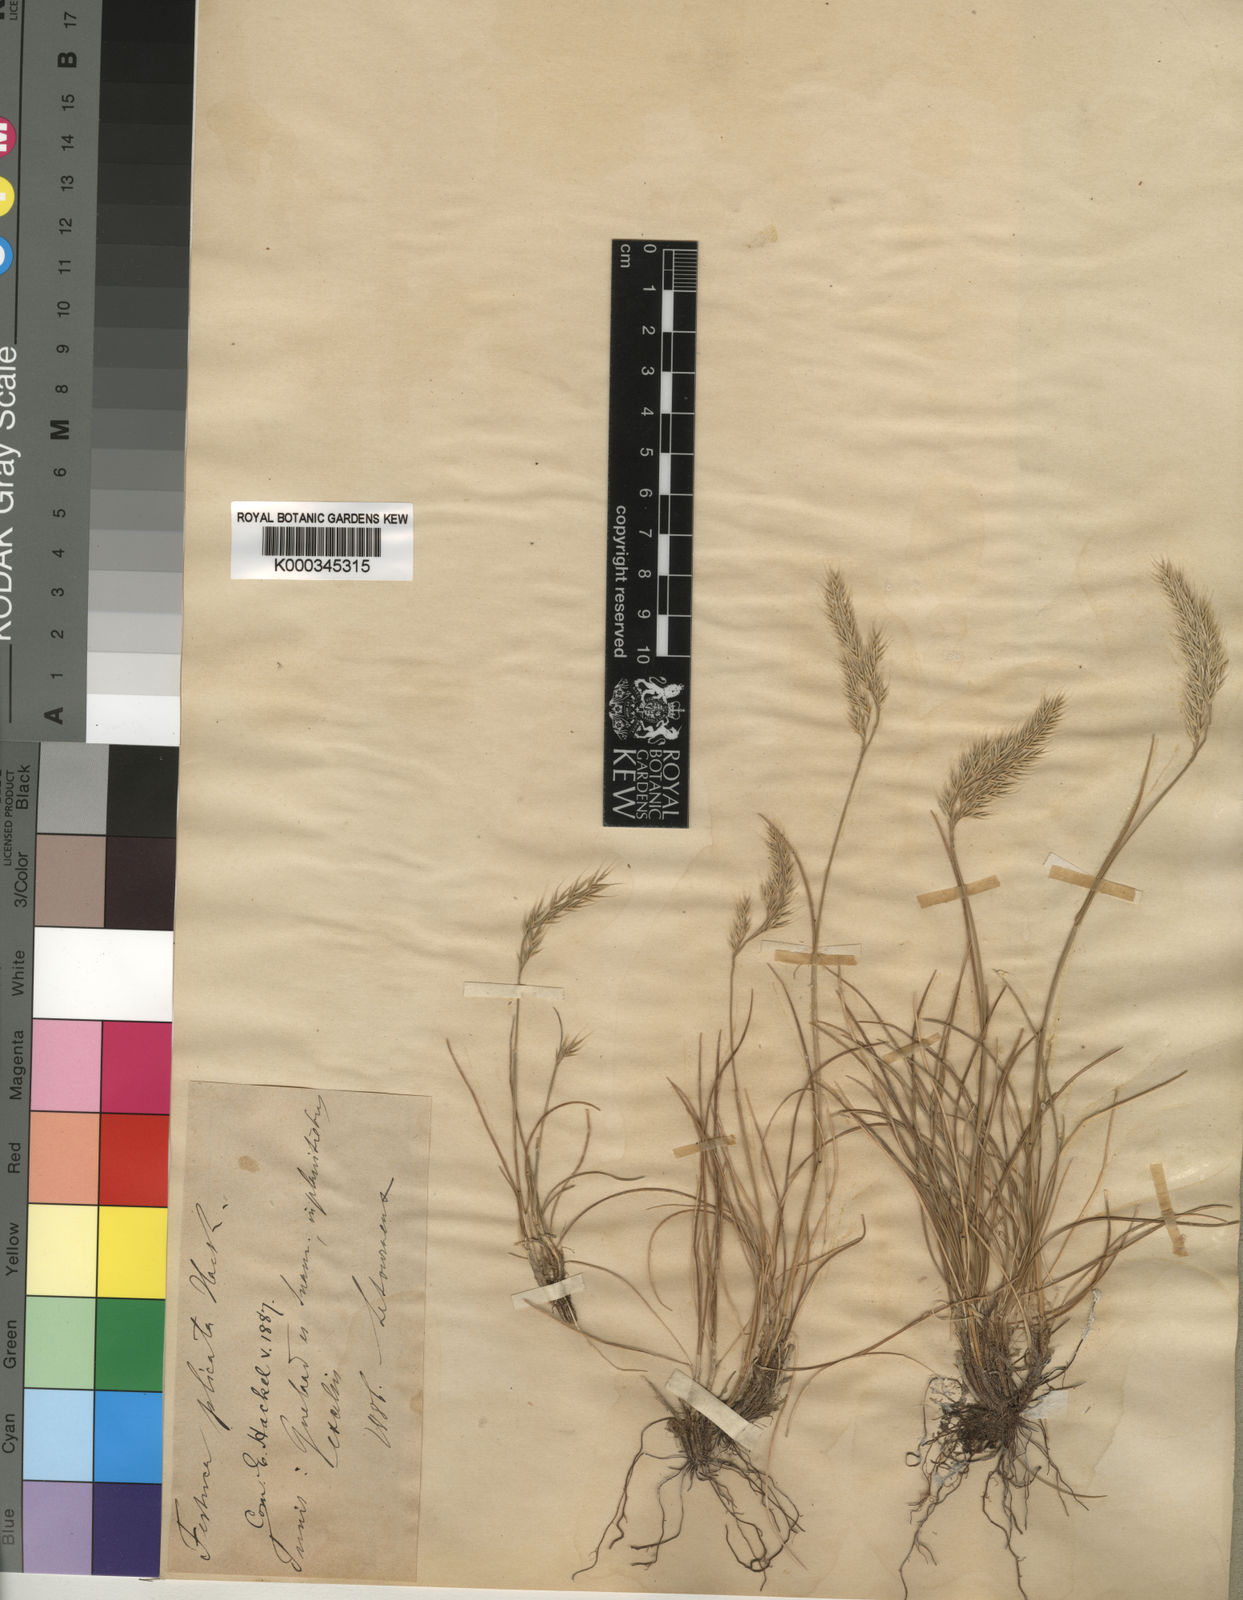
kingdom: Plantae
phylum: Tracheophyta
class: Liliopsida
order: Poales
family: Poaceae
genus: Festuca
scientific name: Festuca plicata
